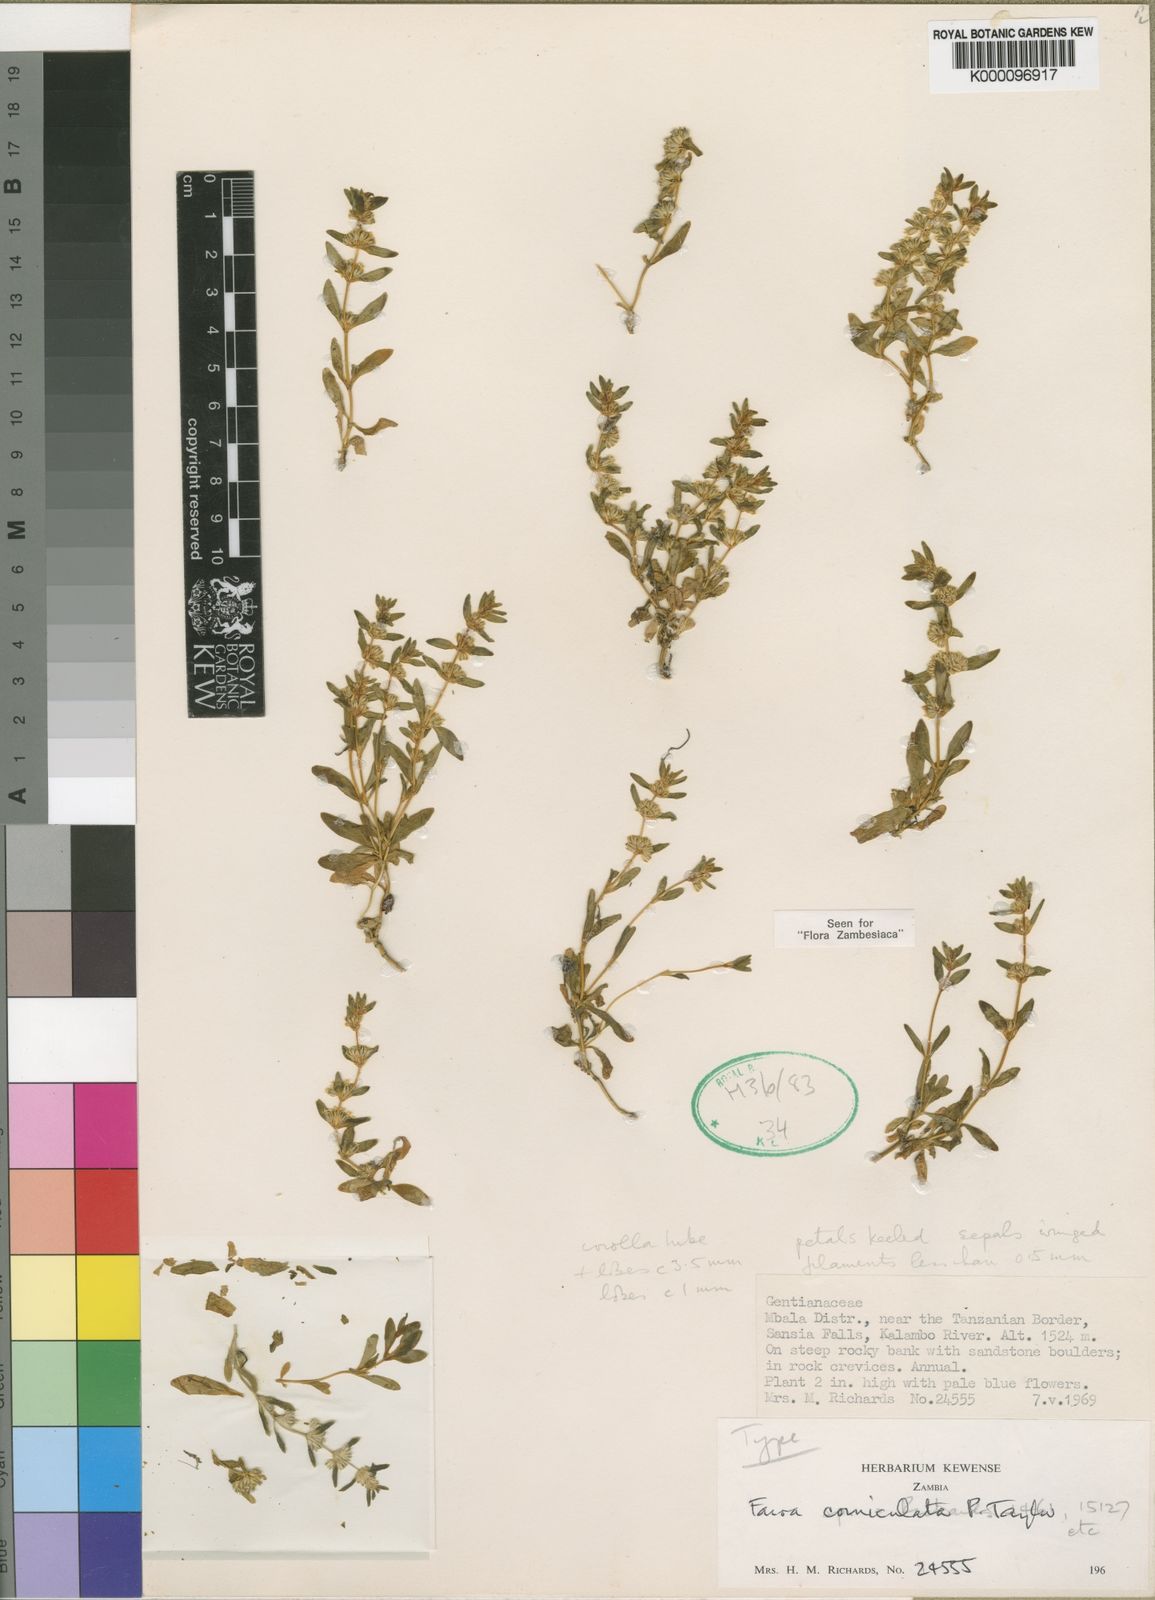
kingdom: Plantae
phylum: Tracheophyta
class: Magnoliopsida
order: Gentianales
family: Gentianaceae
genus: Faroa
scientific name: Faroa corniculata
